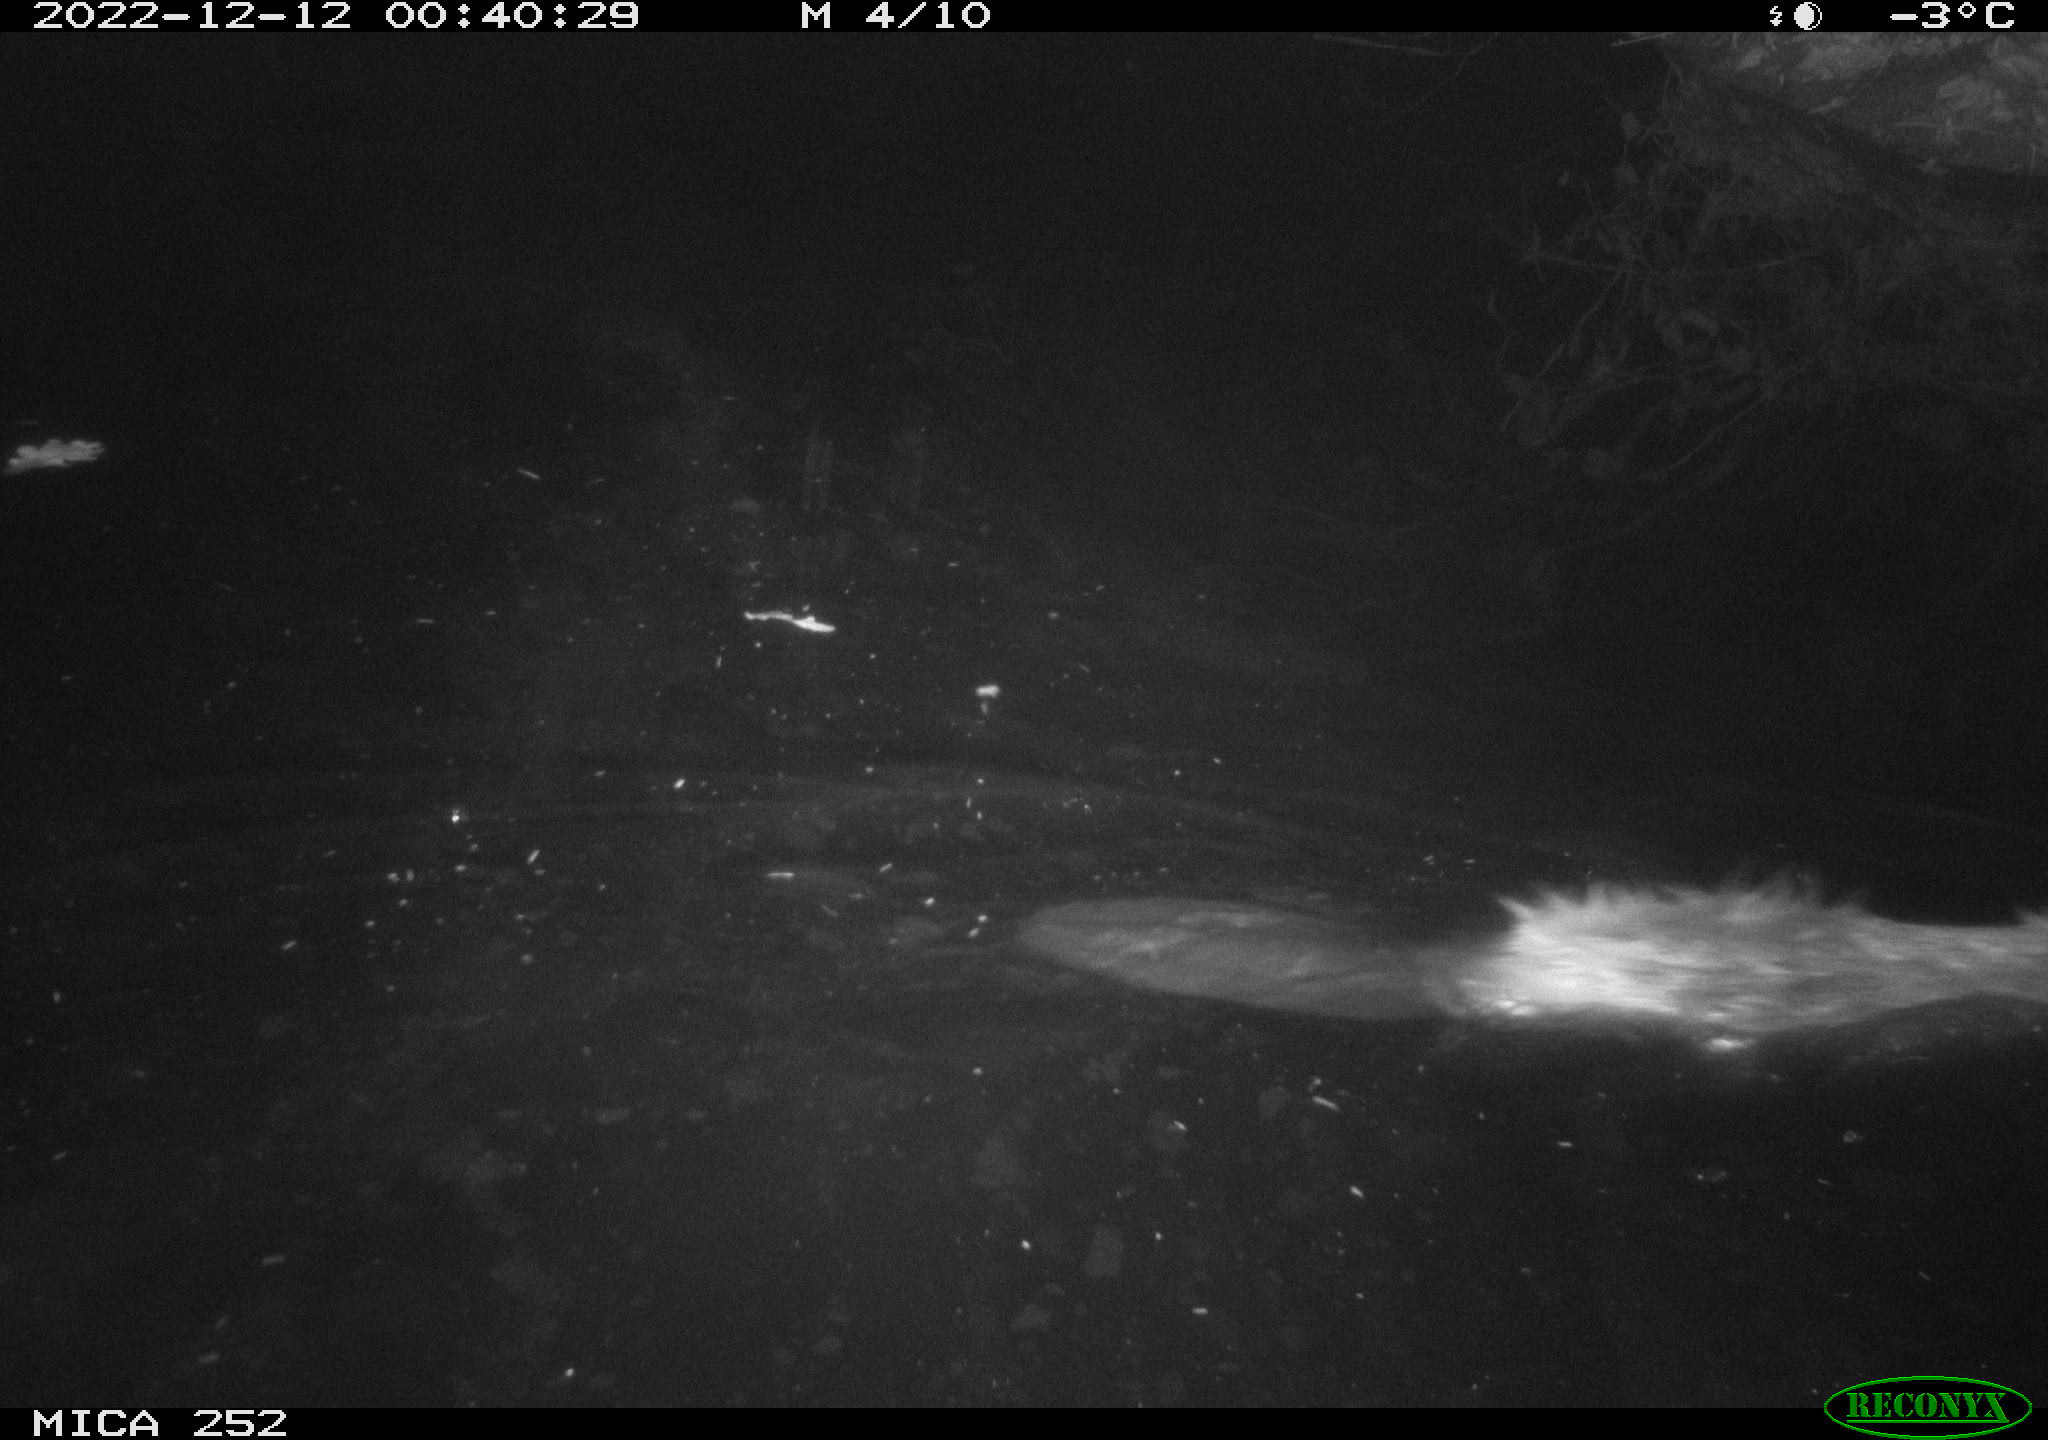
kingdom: Animalia
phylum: Chordata
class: Mammalia
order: Rodentia
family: Castoridae
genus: Castor
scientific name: Castor fiber
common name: Eurasian beaver
